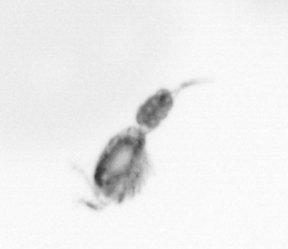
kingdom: Animalia
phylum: Arthropoda
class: Copepoda
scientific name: Copepoda
